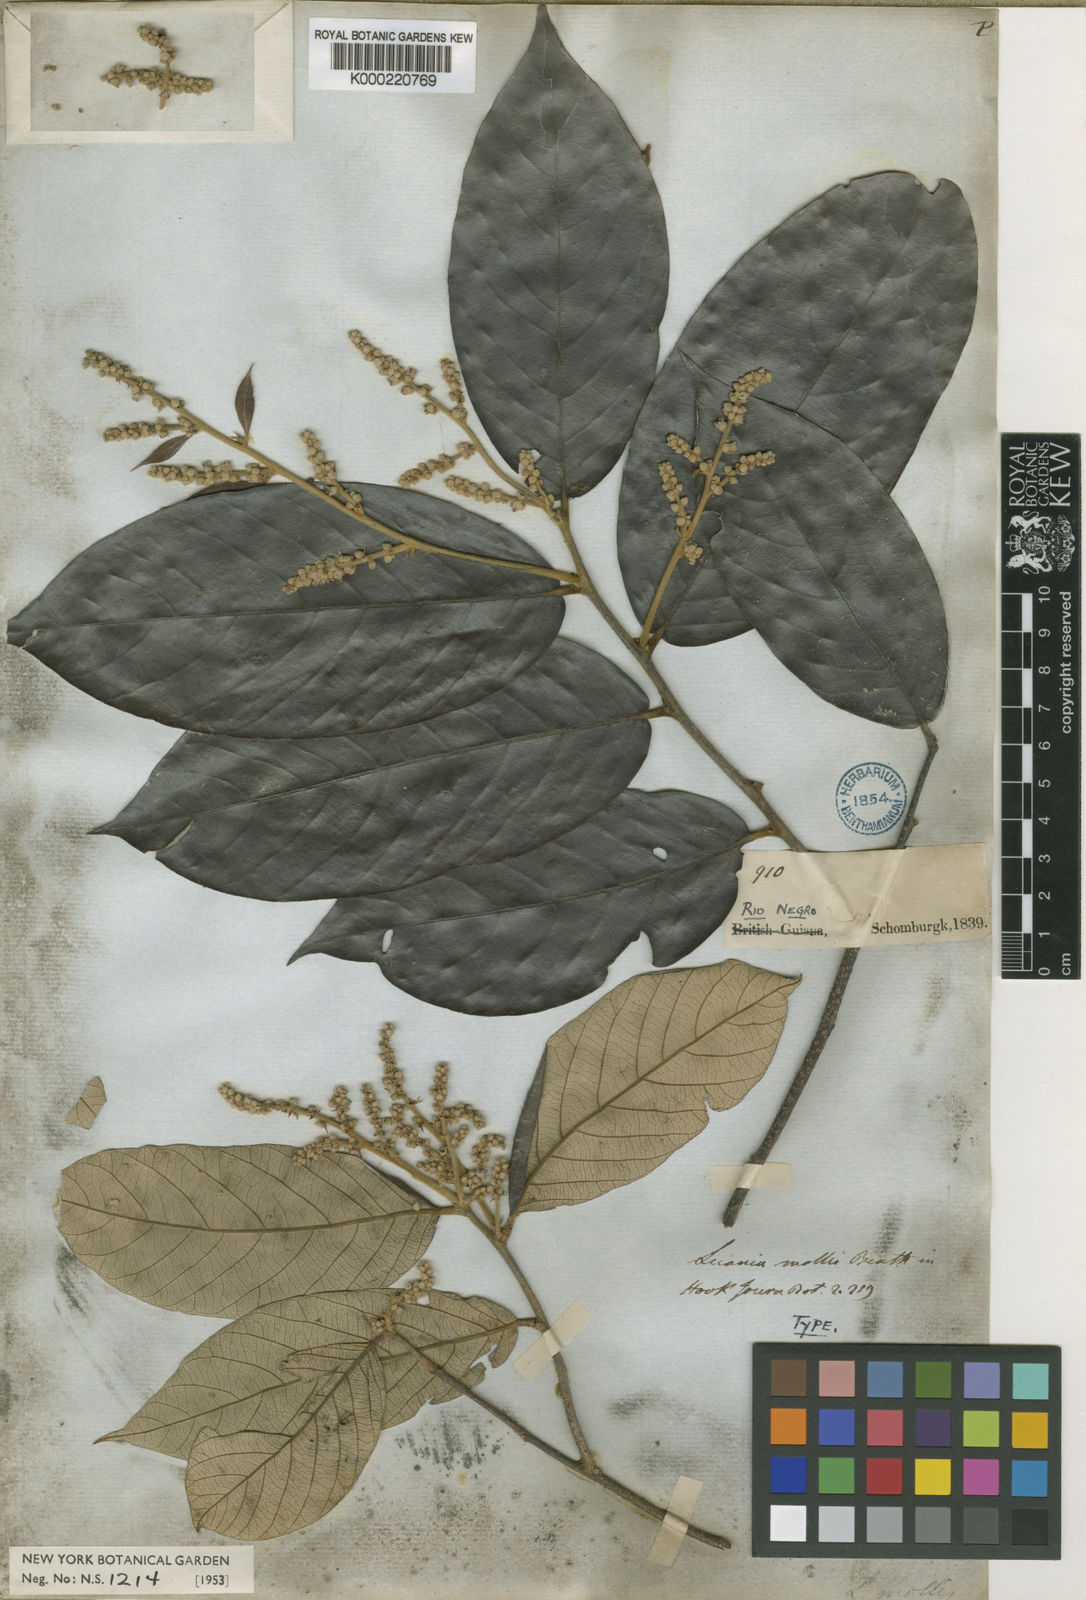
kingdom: Plantae
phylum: Tracheophyta
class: Magnoliopsida
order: Malpighiales
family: Chrysobalanaceae
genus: Licania
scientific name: Licania mollis
